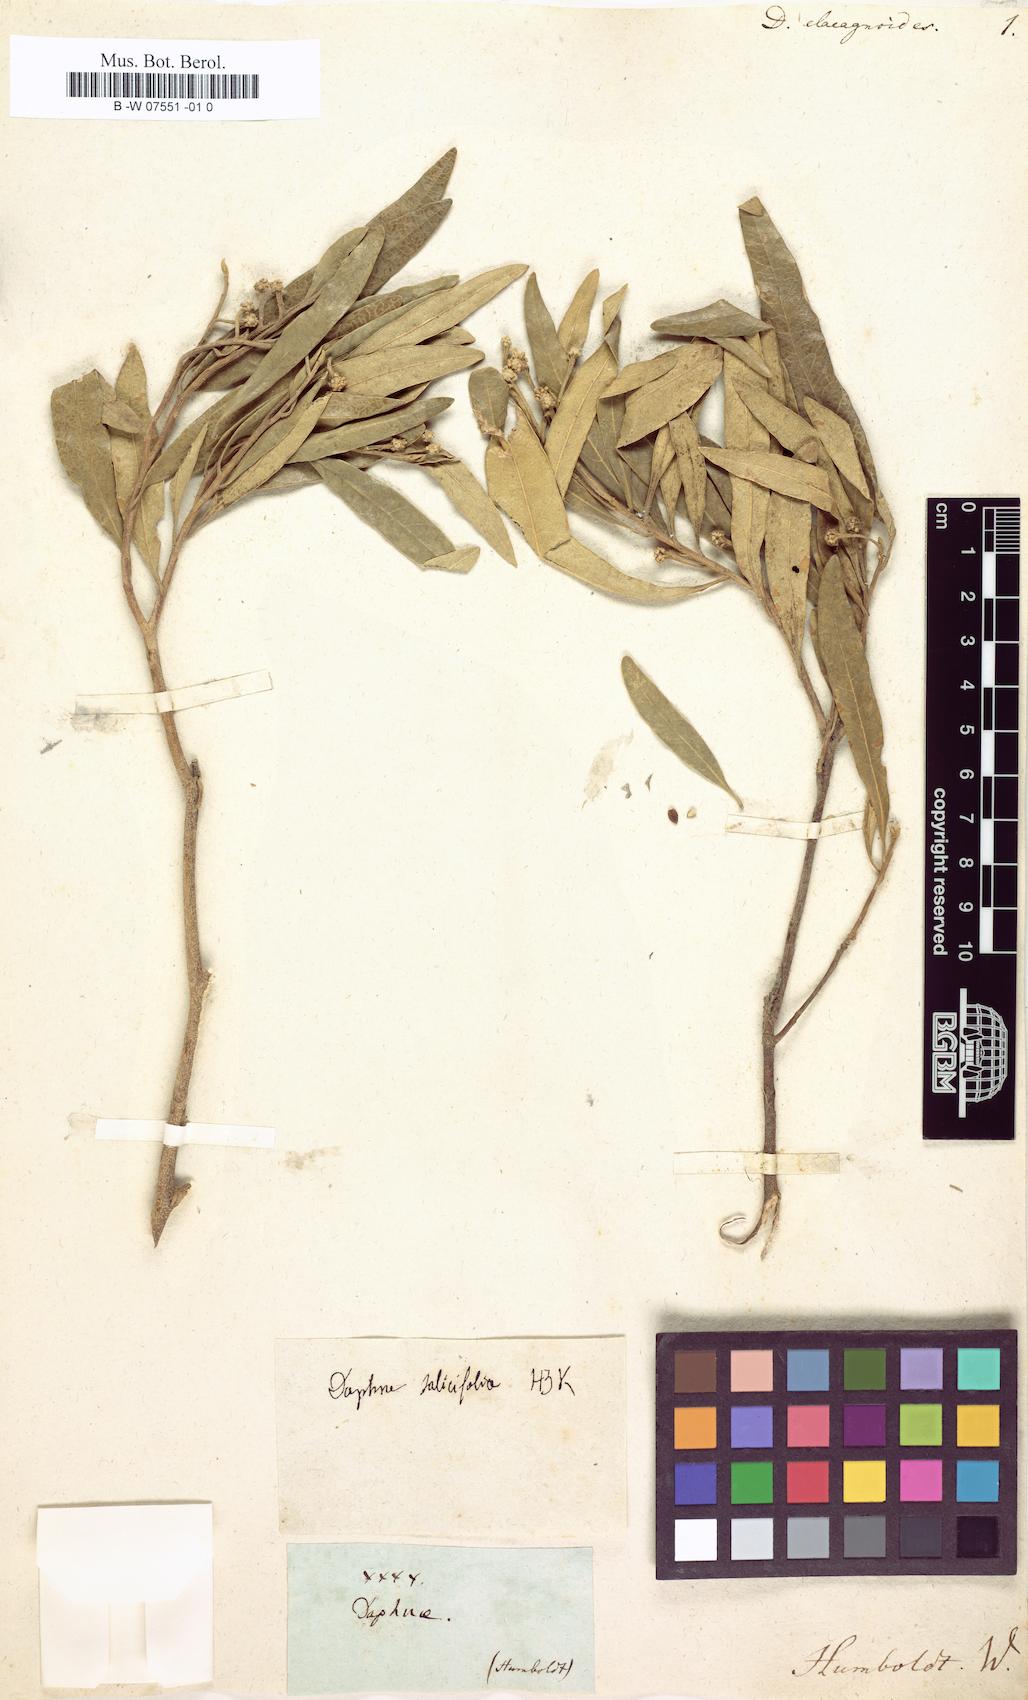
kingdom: Plantae
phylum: Tracheophyta
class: Magnoliopsida
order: Malvales
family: Thymelaeaceae
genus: Daphnopsis
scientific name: Daphnopsis americana
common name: Maho
